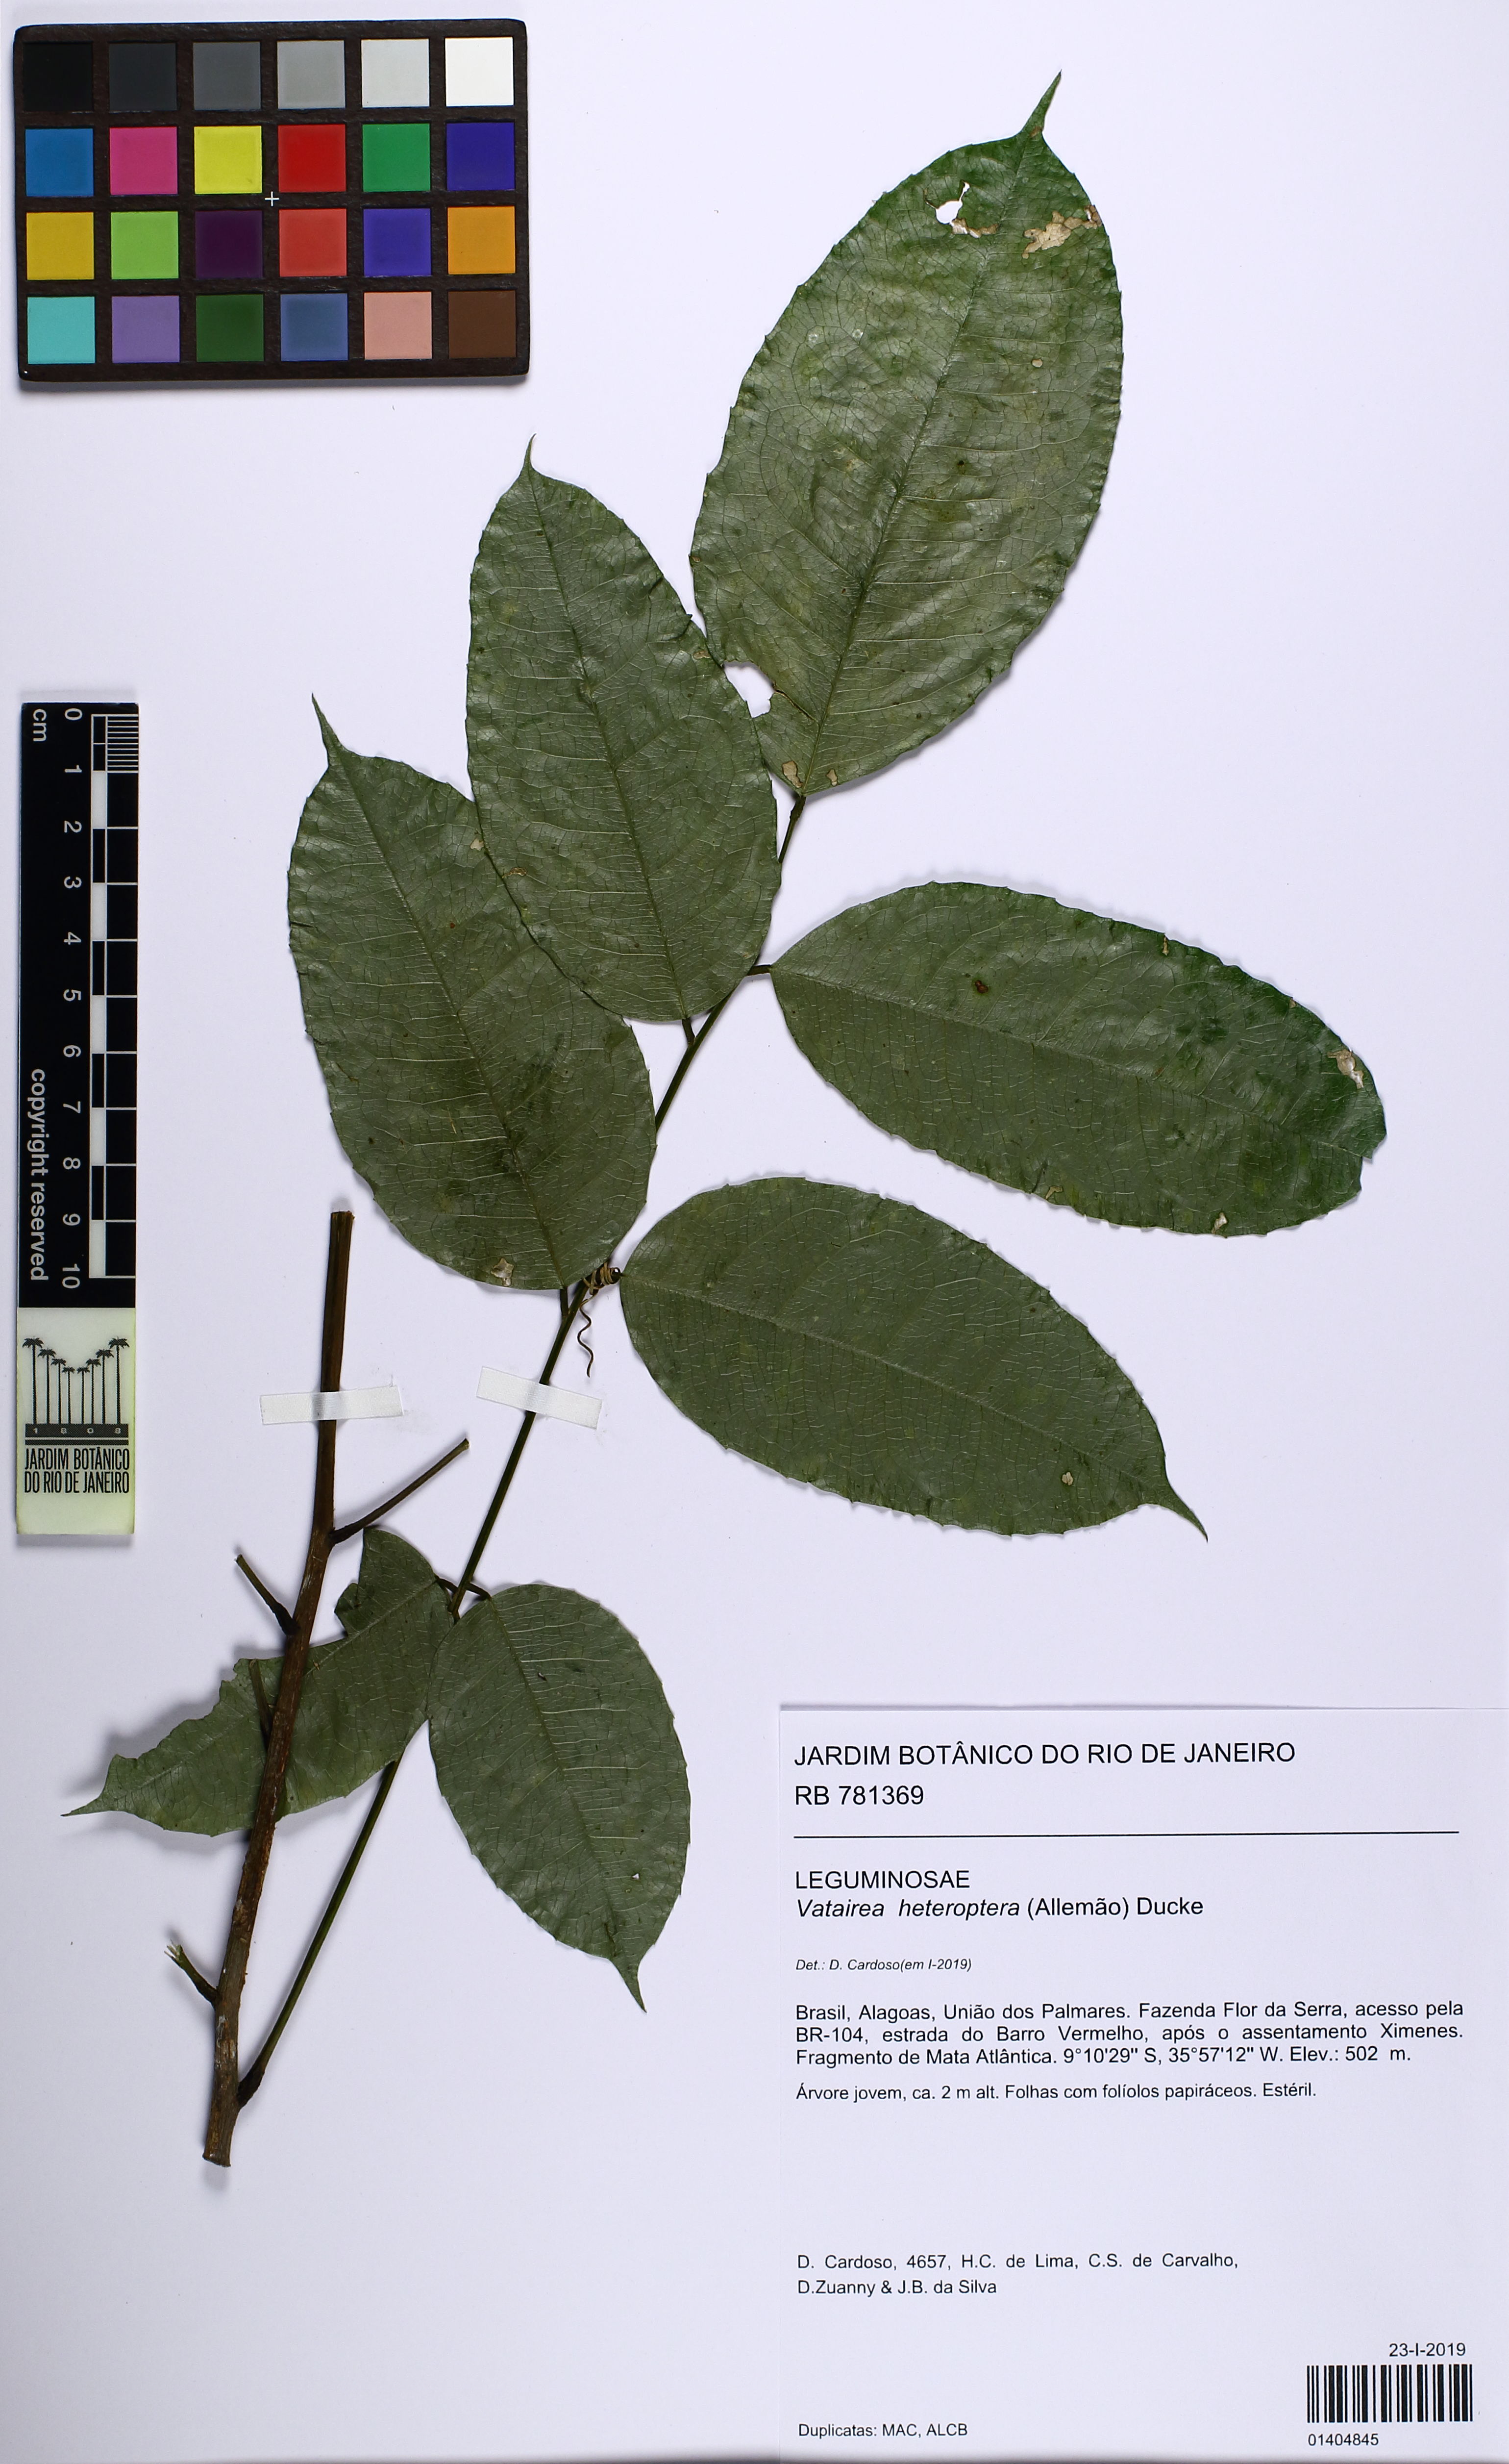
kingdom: Plantae
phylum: Tracheophyta
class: Magnoliopsida
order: Fabales
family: Fabaceae
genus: Vatairea
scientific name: Vatairea heteroptera
